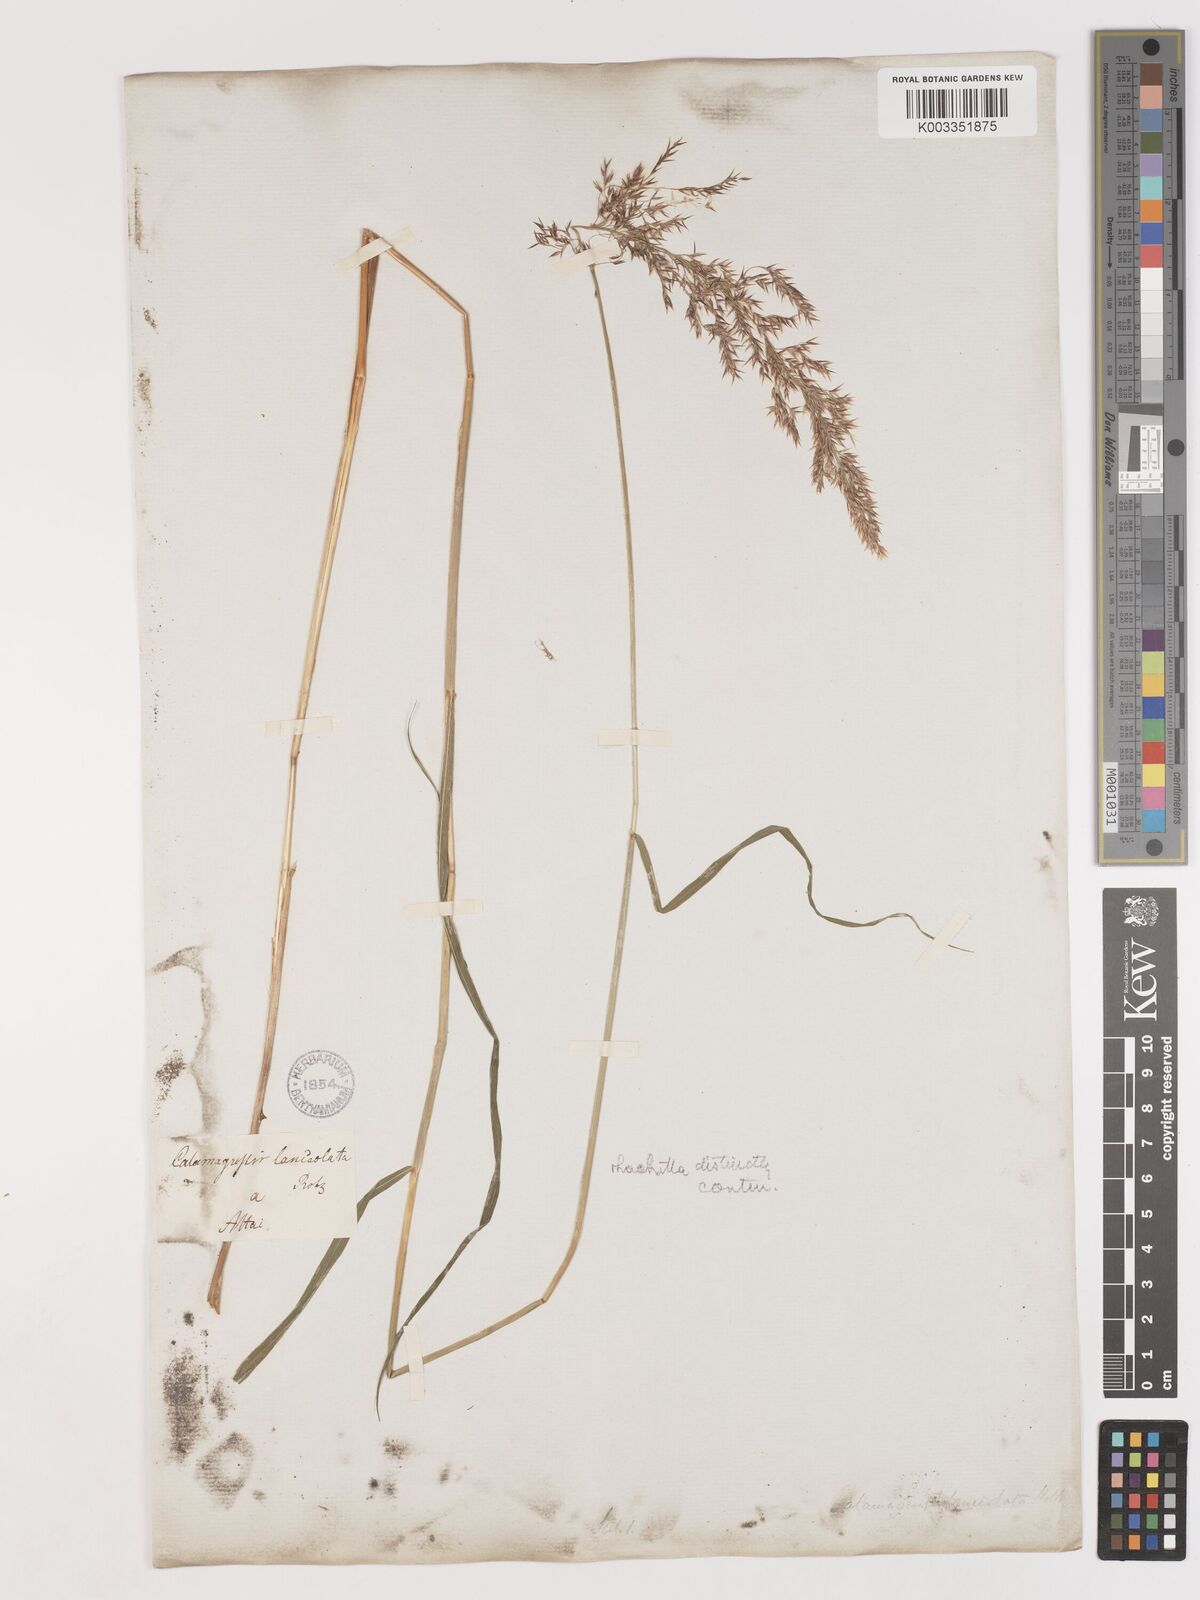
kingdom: Plantae
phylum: Tracheophyta
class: Liliopsida
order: Poales
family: Poaceae
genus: Calamagrostis
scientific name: Calamagrostis canescens
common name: Purple small-reed
